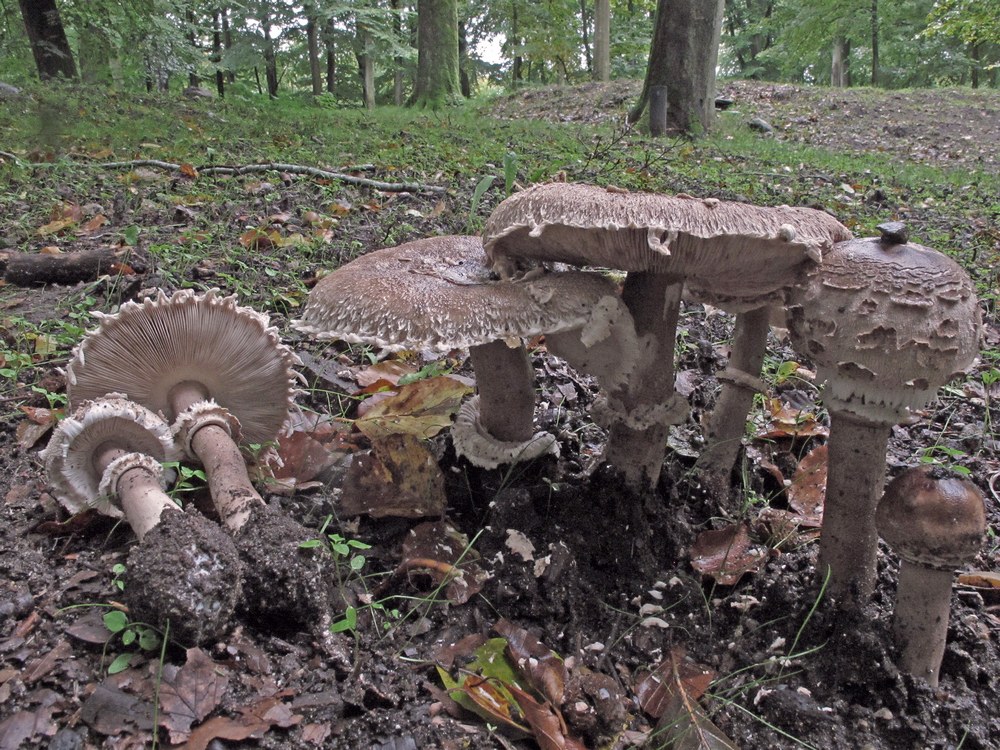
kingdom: Fungi
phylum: Basidiomycota
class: Agaricomycetes
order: Agaricales
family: Agaricaceae
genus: Macrolepiota
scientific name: Macrolepiota fuliginosa
